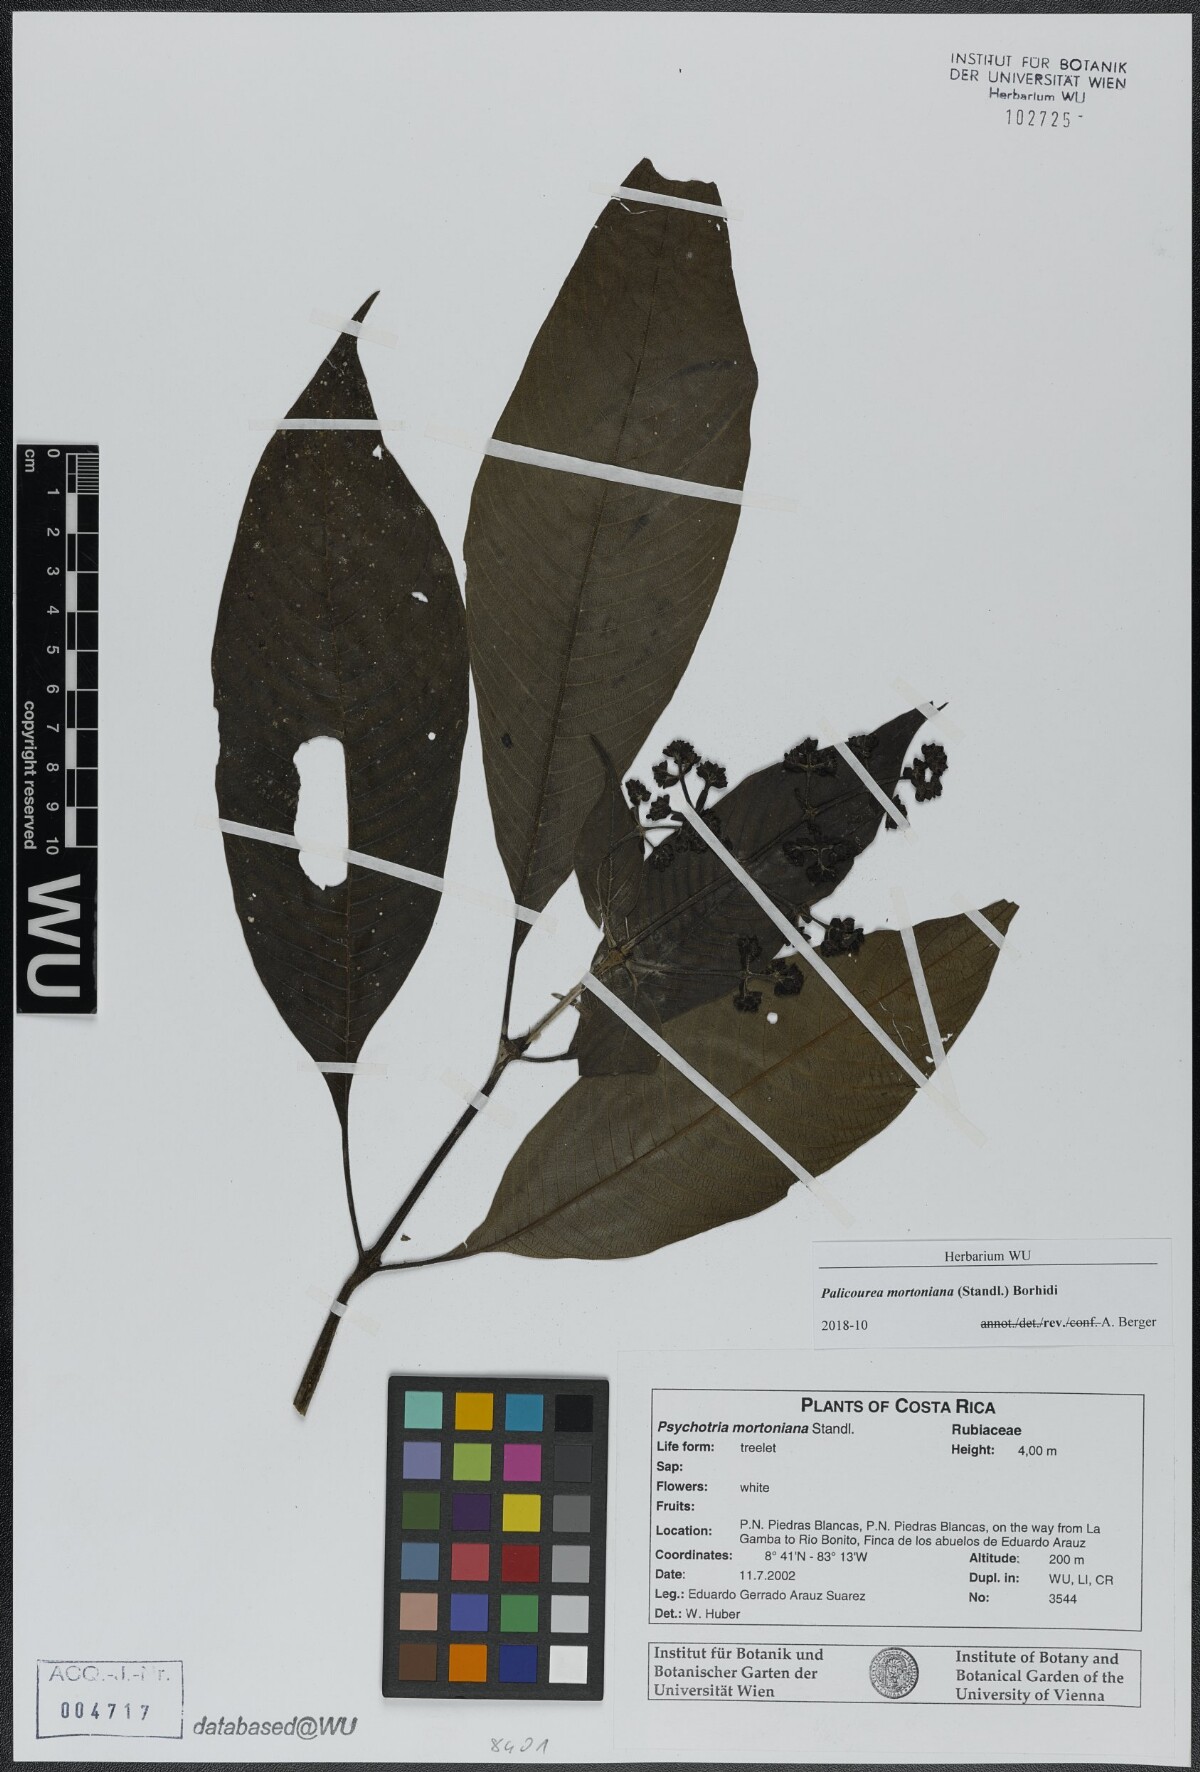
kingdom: Plantae
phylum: Tracheophyta
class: Magnoliopsida
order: Gentianales
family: Rubiaceae
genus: Palicourea
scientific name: Palicourea mortoniana
